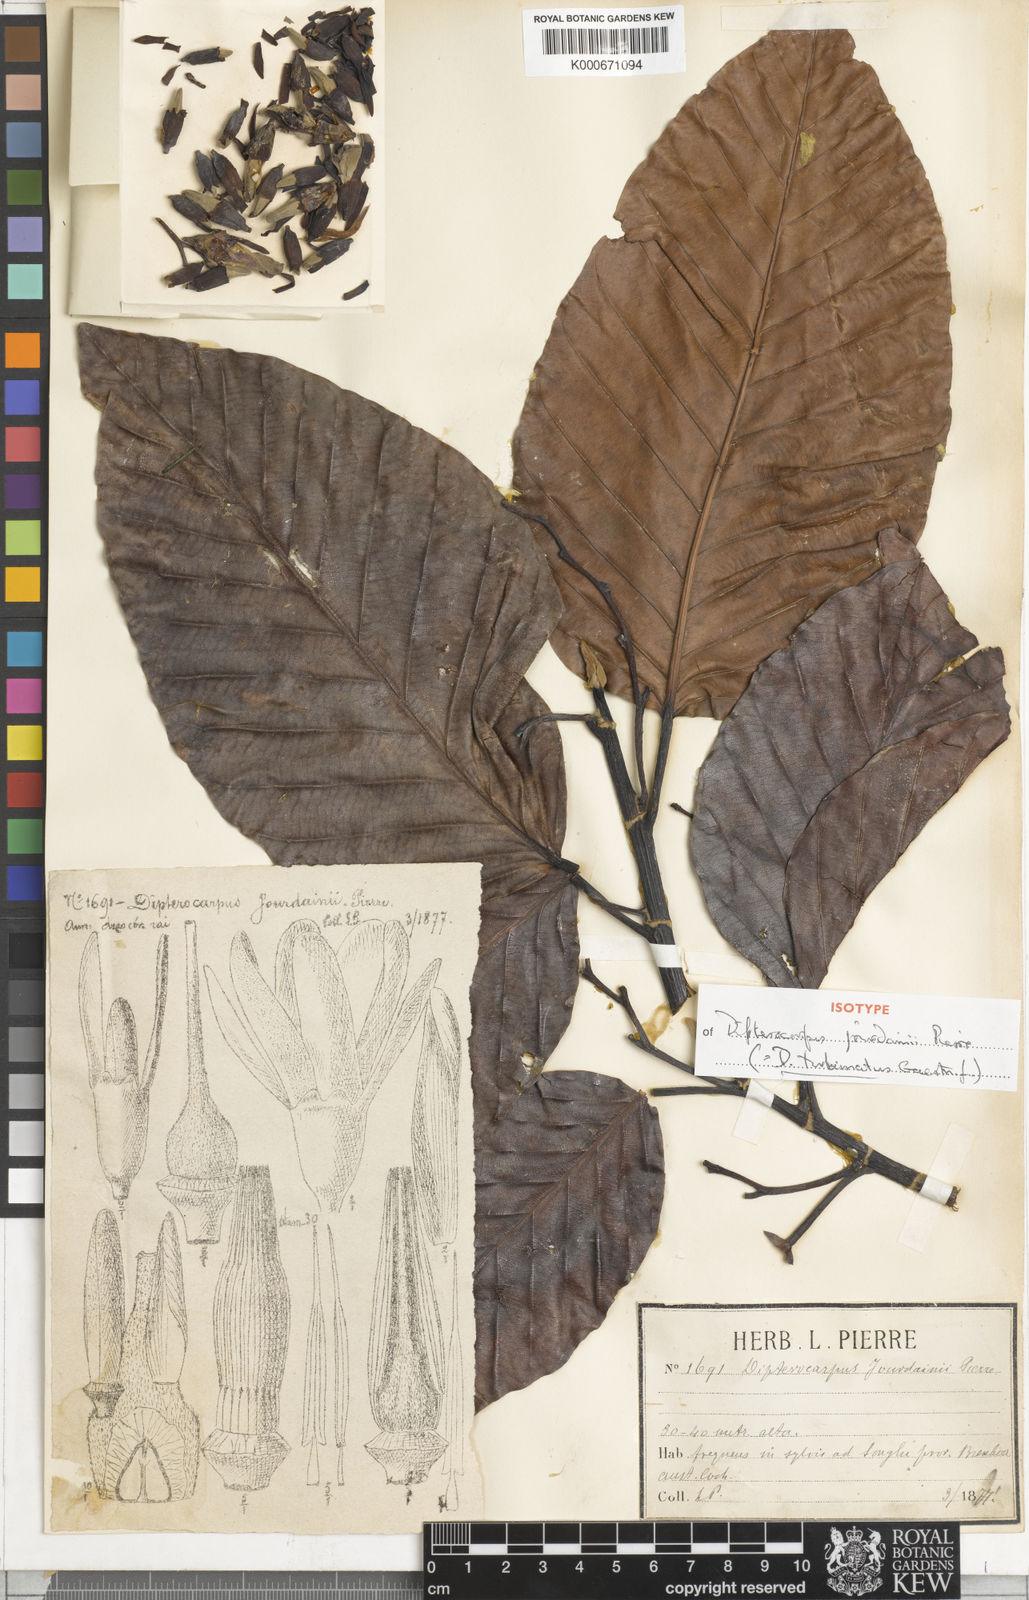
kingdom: Plantae
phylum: Tracheophyta
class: Magnoliopsida
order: Malvales
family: Dipterocarpaceae
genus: Dipterocarpus
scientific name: Dipterocarpus turbinatus
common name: East indian copaiba balsam
